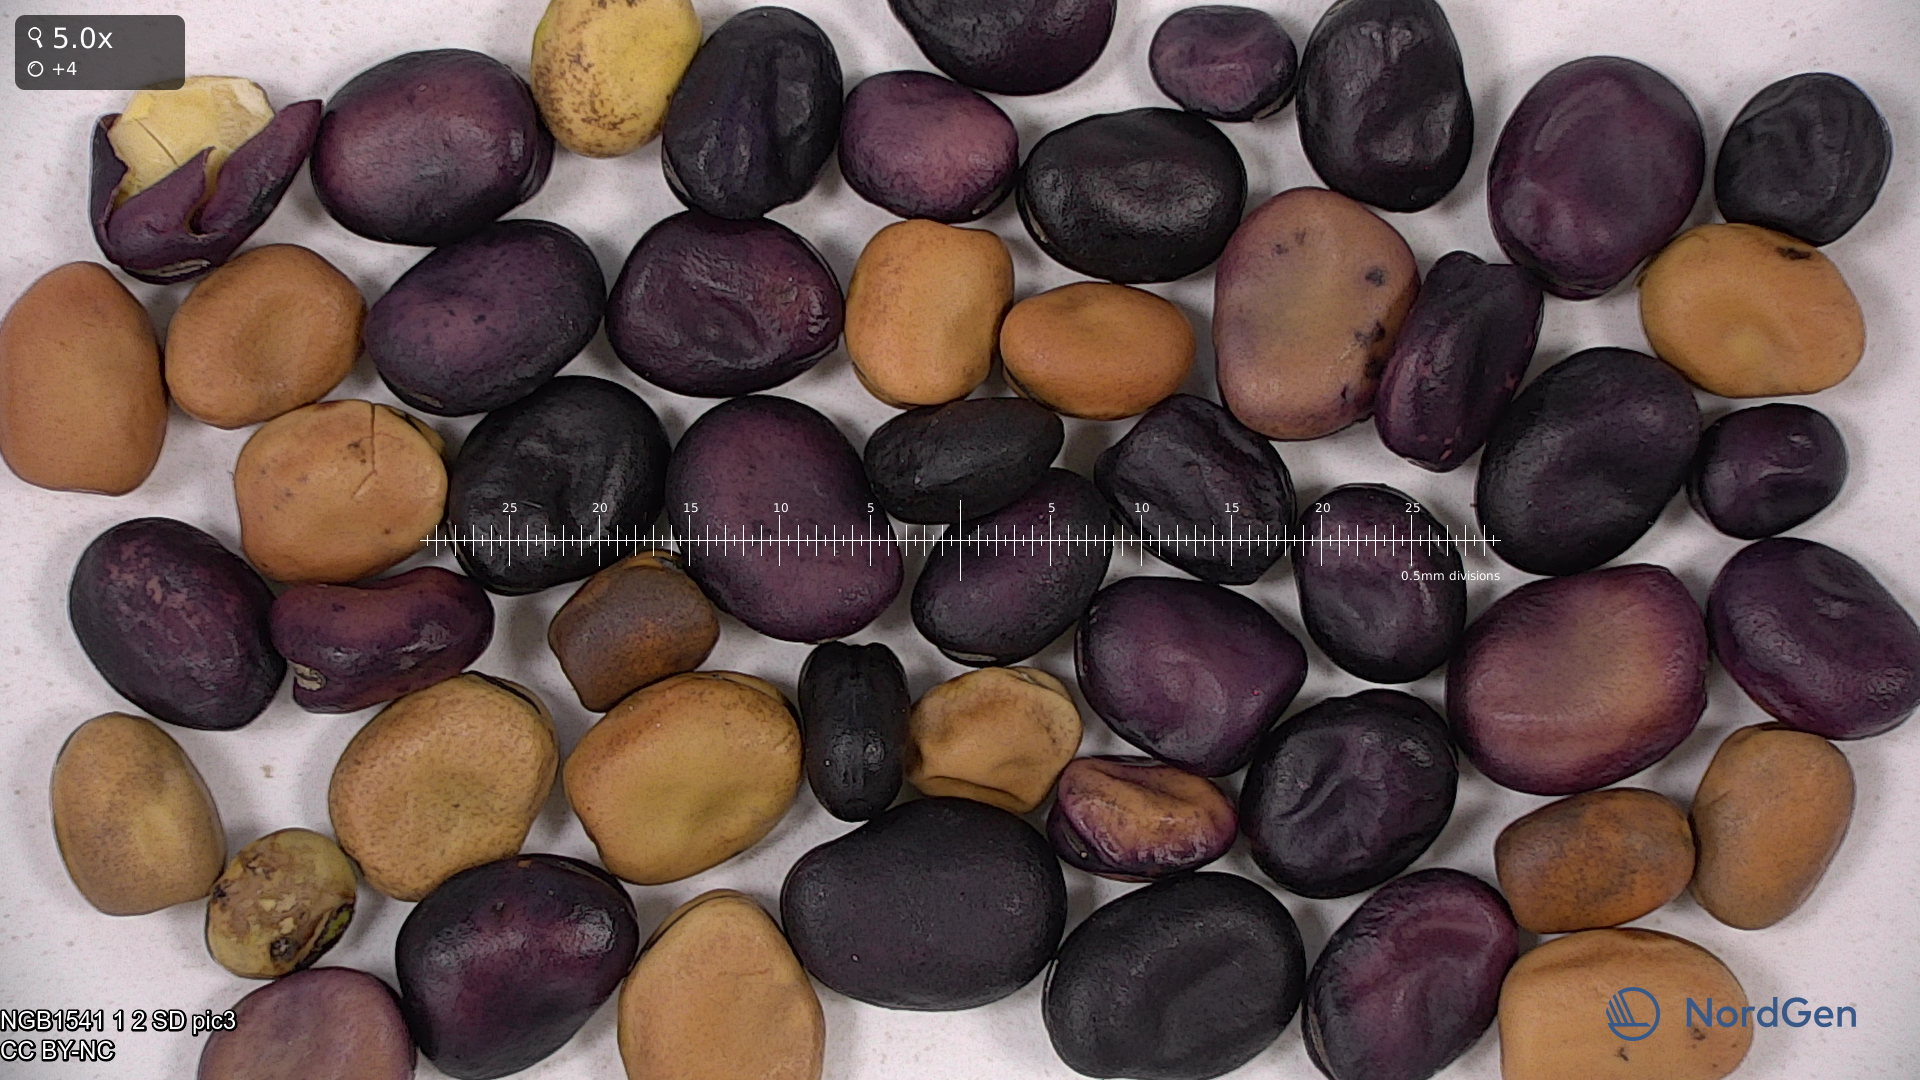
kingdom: Plantae
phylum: Tracheophyta
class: Magnoliopsida
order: Fabales
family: Fabaceae
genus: Vicia
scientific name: Vicia faba
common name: Broad bean
